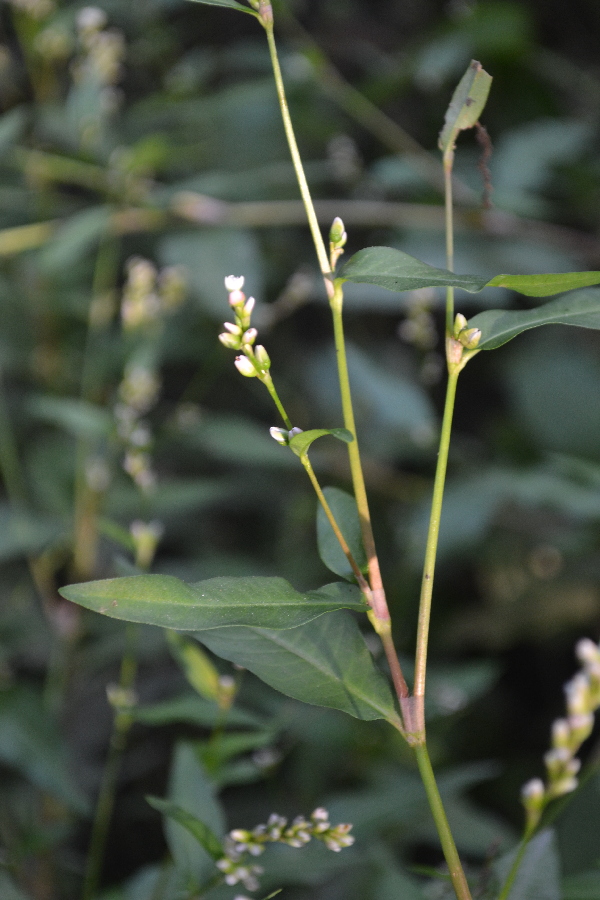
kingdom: Plantae
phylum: Tracheophyta
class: Magnoliopsida
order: Caryophyllales
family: Polygonaceae
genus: Persicaria
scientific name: Persicaria hydropiper
